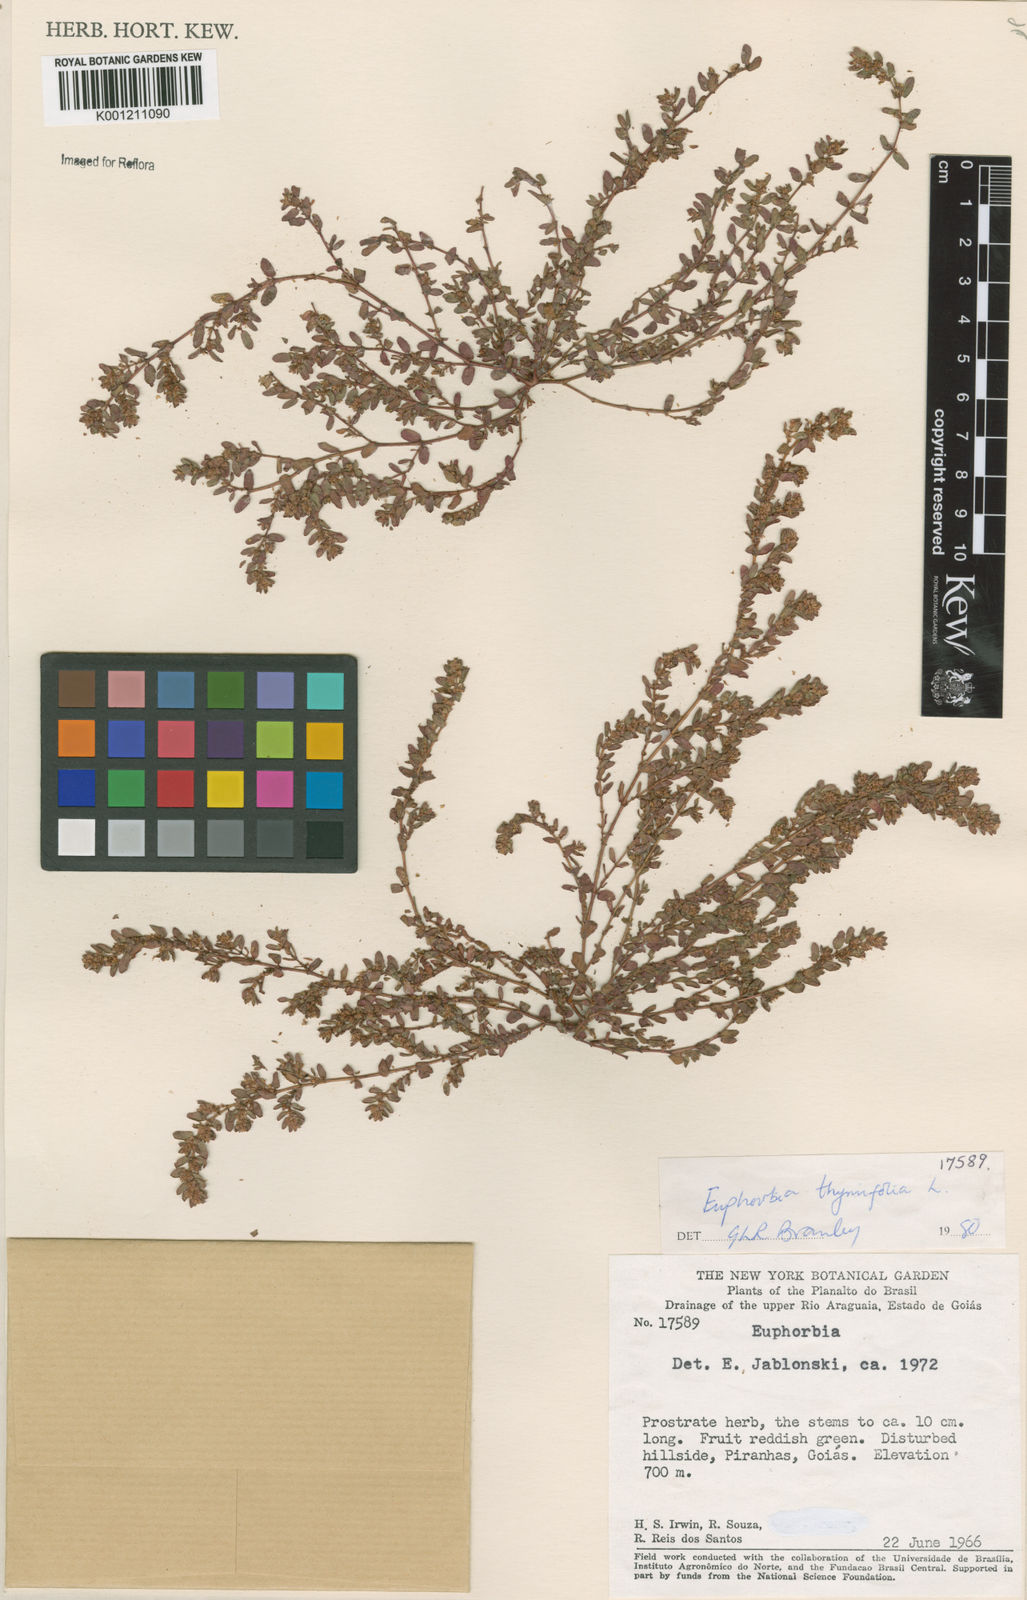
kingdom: Plantae
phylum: Tracheophyta
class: Magnoliopsida
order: Malpighiales
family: Euphorbiaceae
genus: Euphorbia
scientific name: Euphorbia thymifolia
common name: Gulf sandmat
